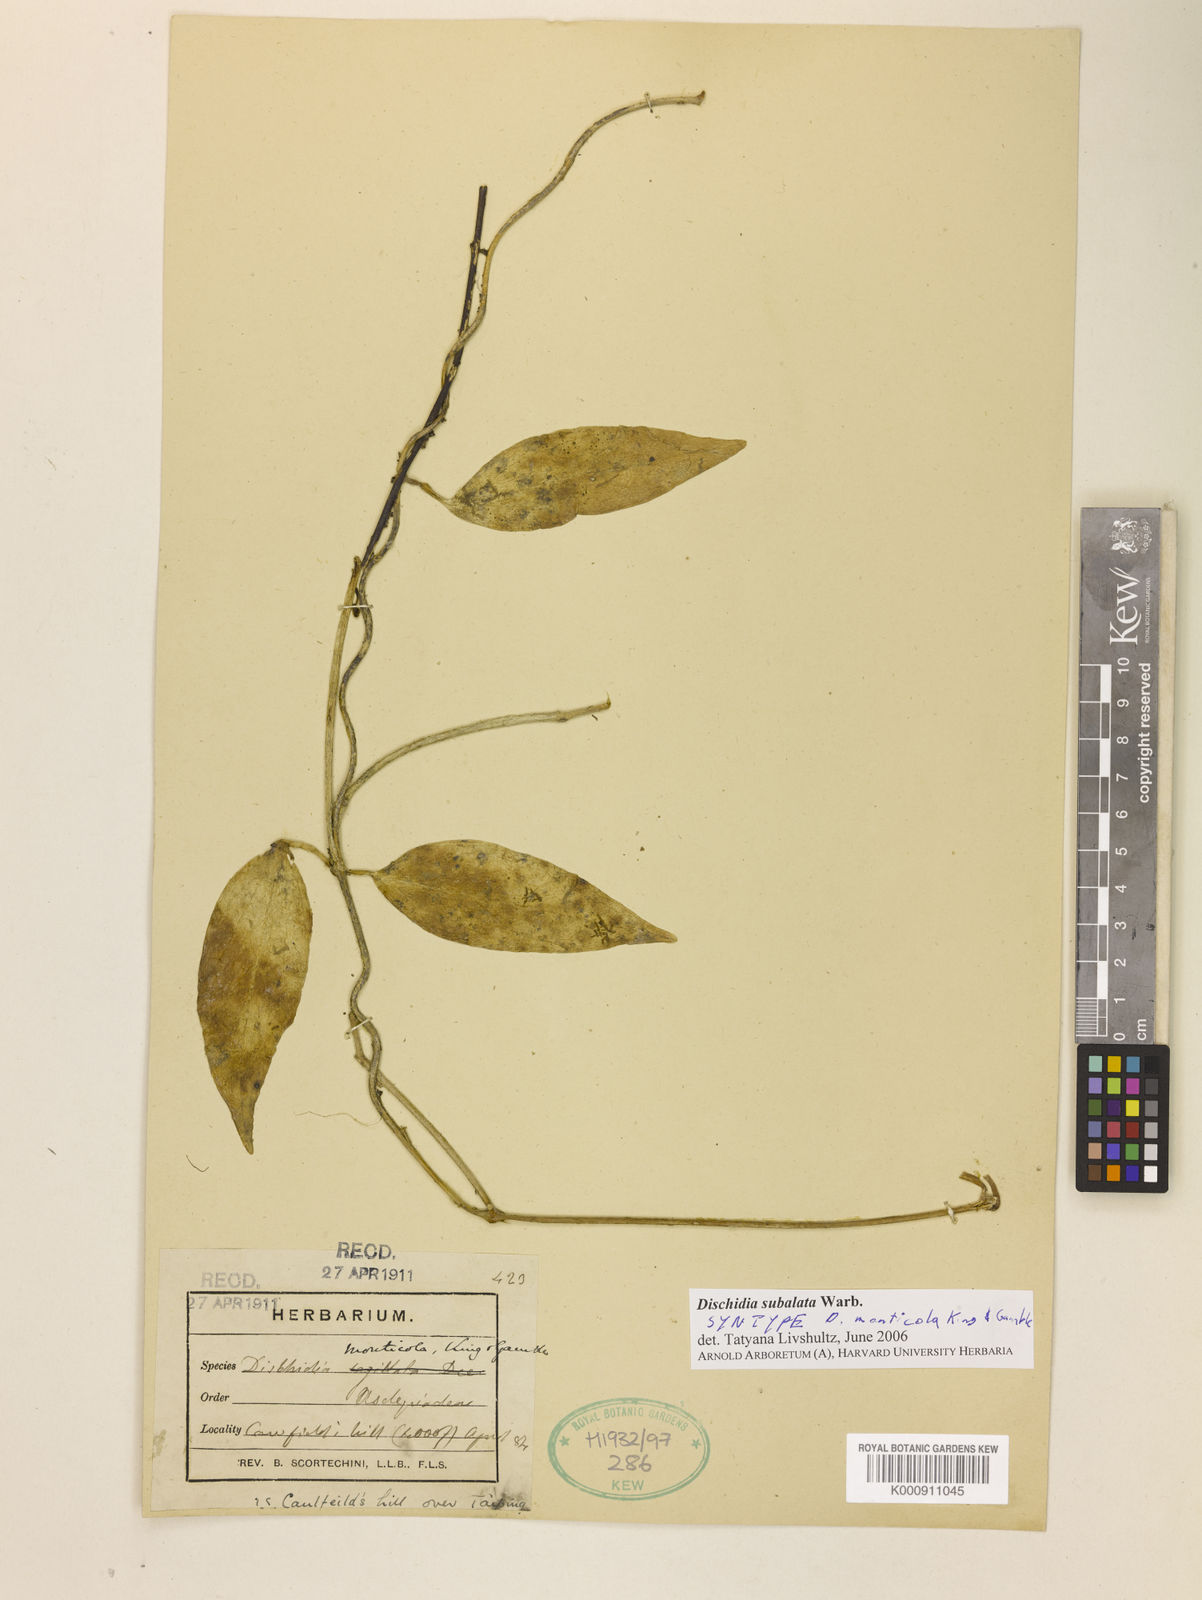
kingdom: Plantae
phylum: Tracheophyta
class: Magnoliopsida
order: Gentianales
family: Apocynaceae
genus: Dischidia
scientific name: Dischidia
